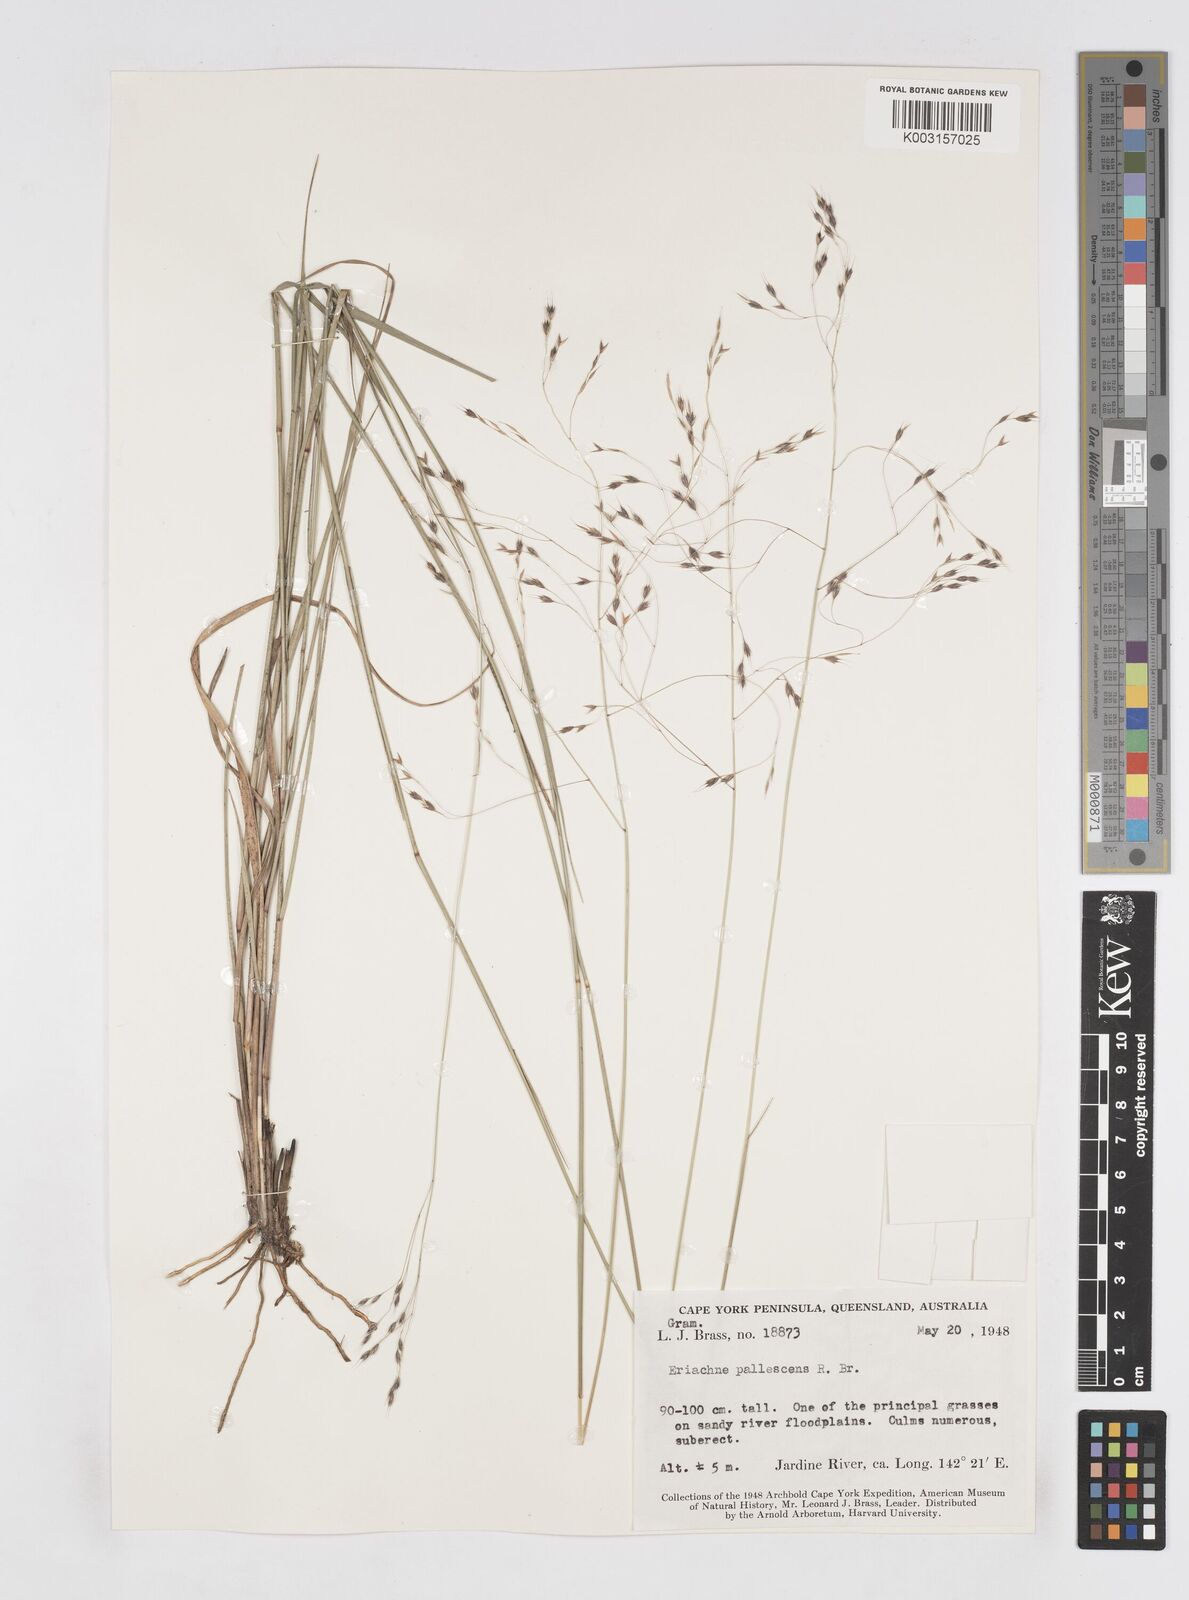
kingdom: Plantae
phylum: Tracheophyta
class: Liliopsida
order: Poales
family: Poaceae
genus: Eriachne
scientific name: Eriachne pallescens
